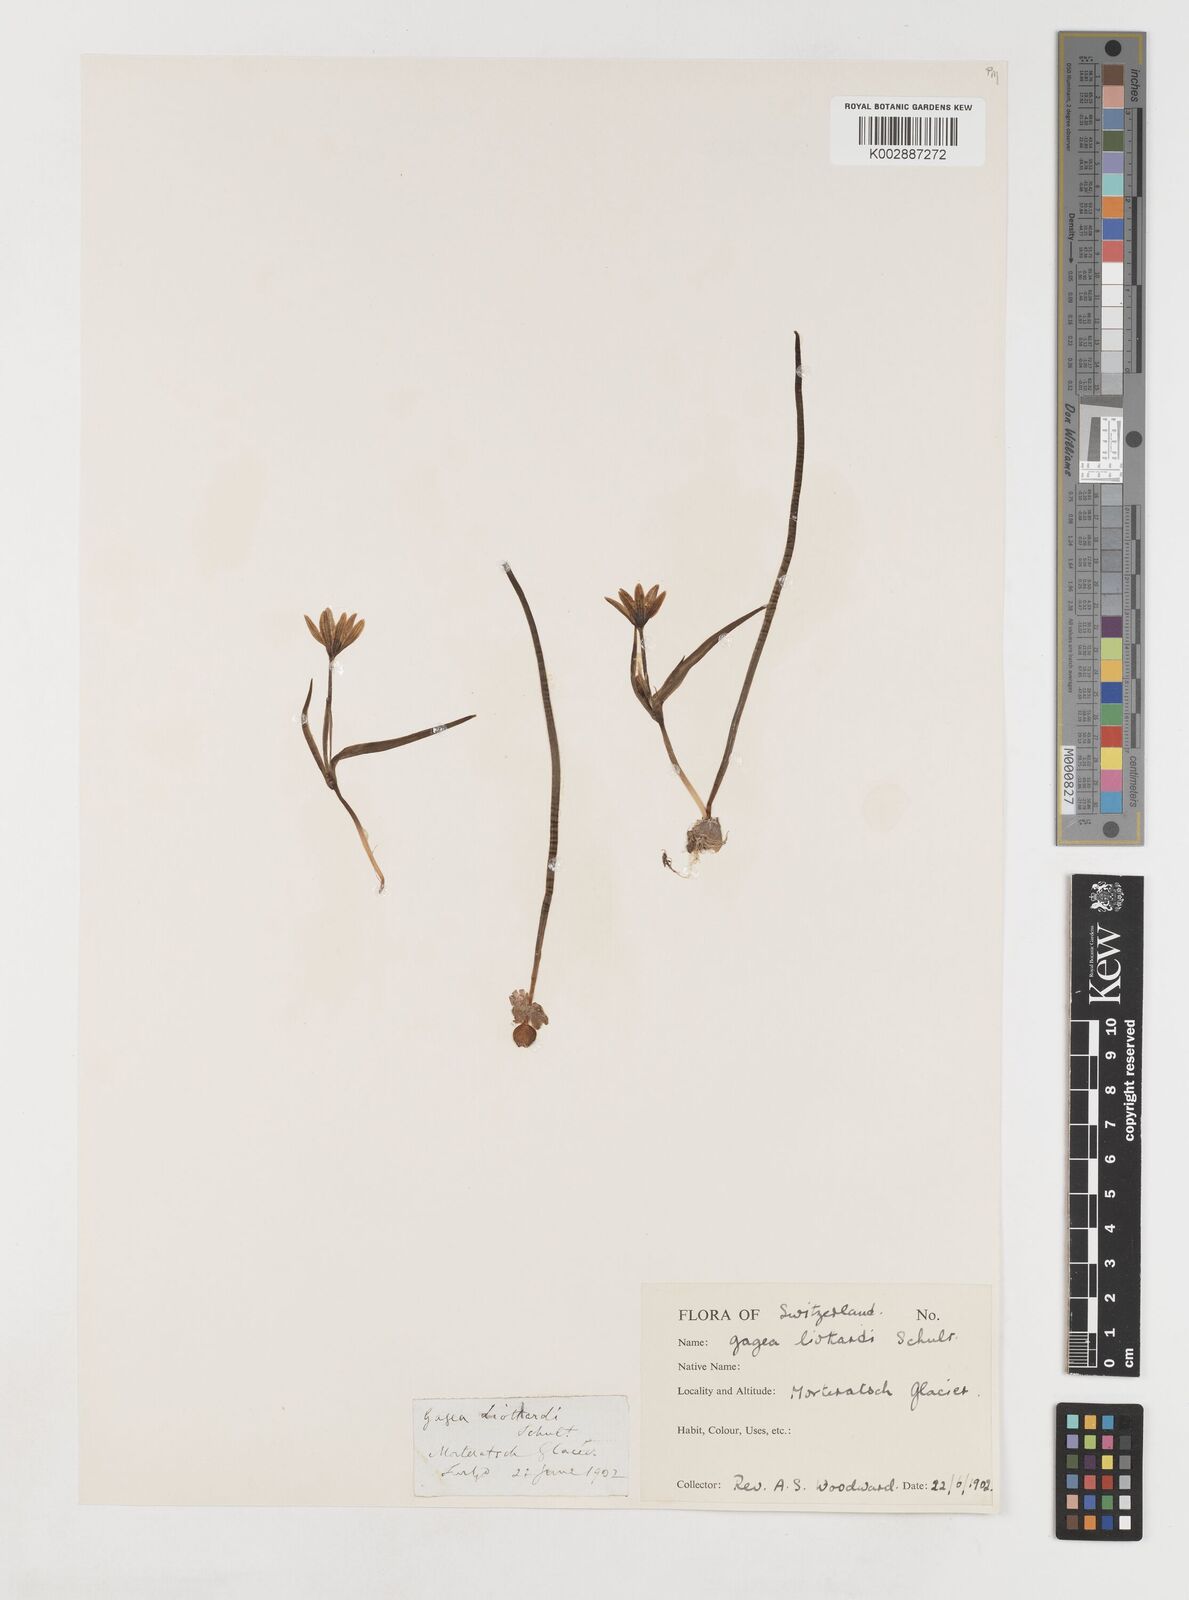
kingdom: Plantae
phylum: Tracheophyta
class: Liliopsida
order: Liliales
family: Liliaceae
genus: Gagea
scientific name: Gagea bohemica
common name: Early star-of-bethlehem
